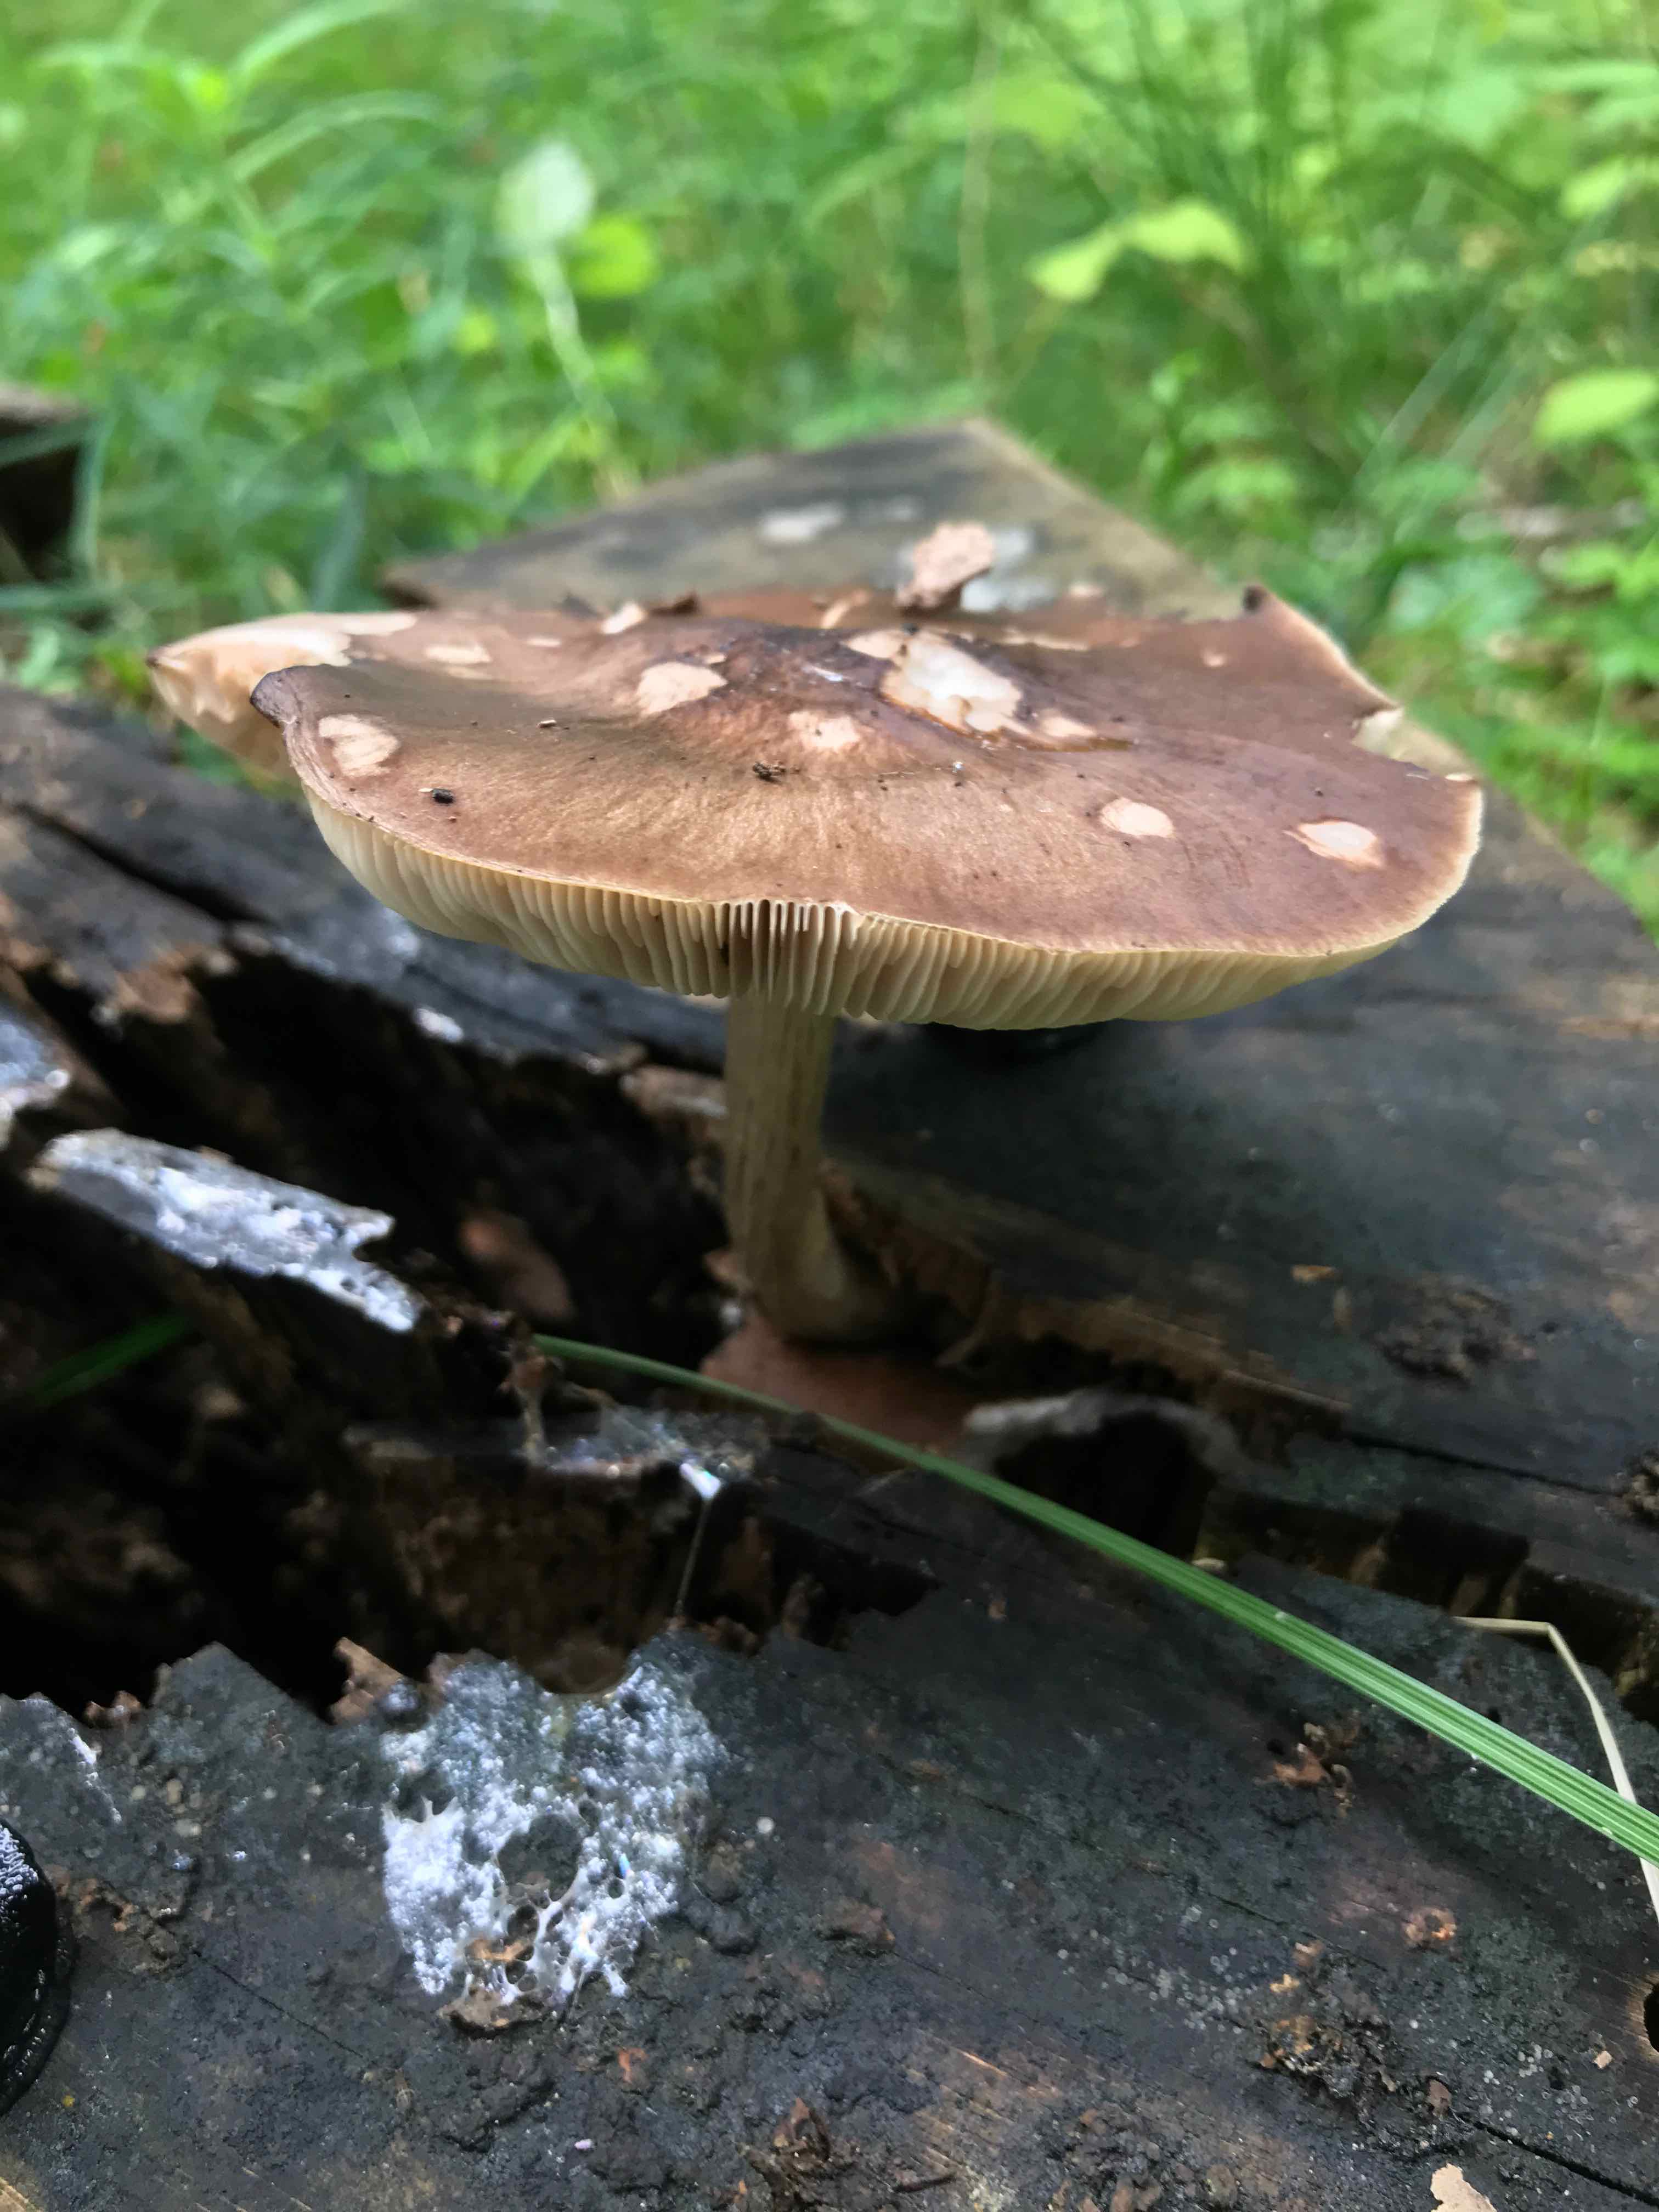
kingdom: Fungi
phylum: Basidiomycota
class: Agaricomycetes
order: Agaricales
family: Pluteaceae
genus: Pluteus
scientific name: Pluteus cervinus
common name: sodfarvet skærmhat
